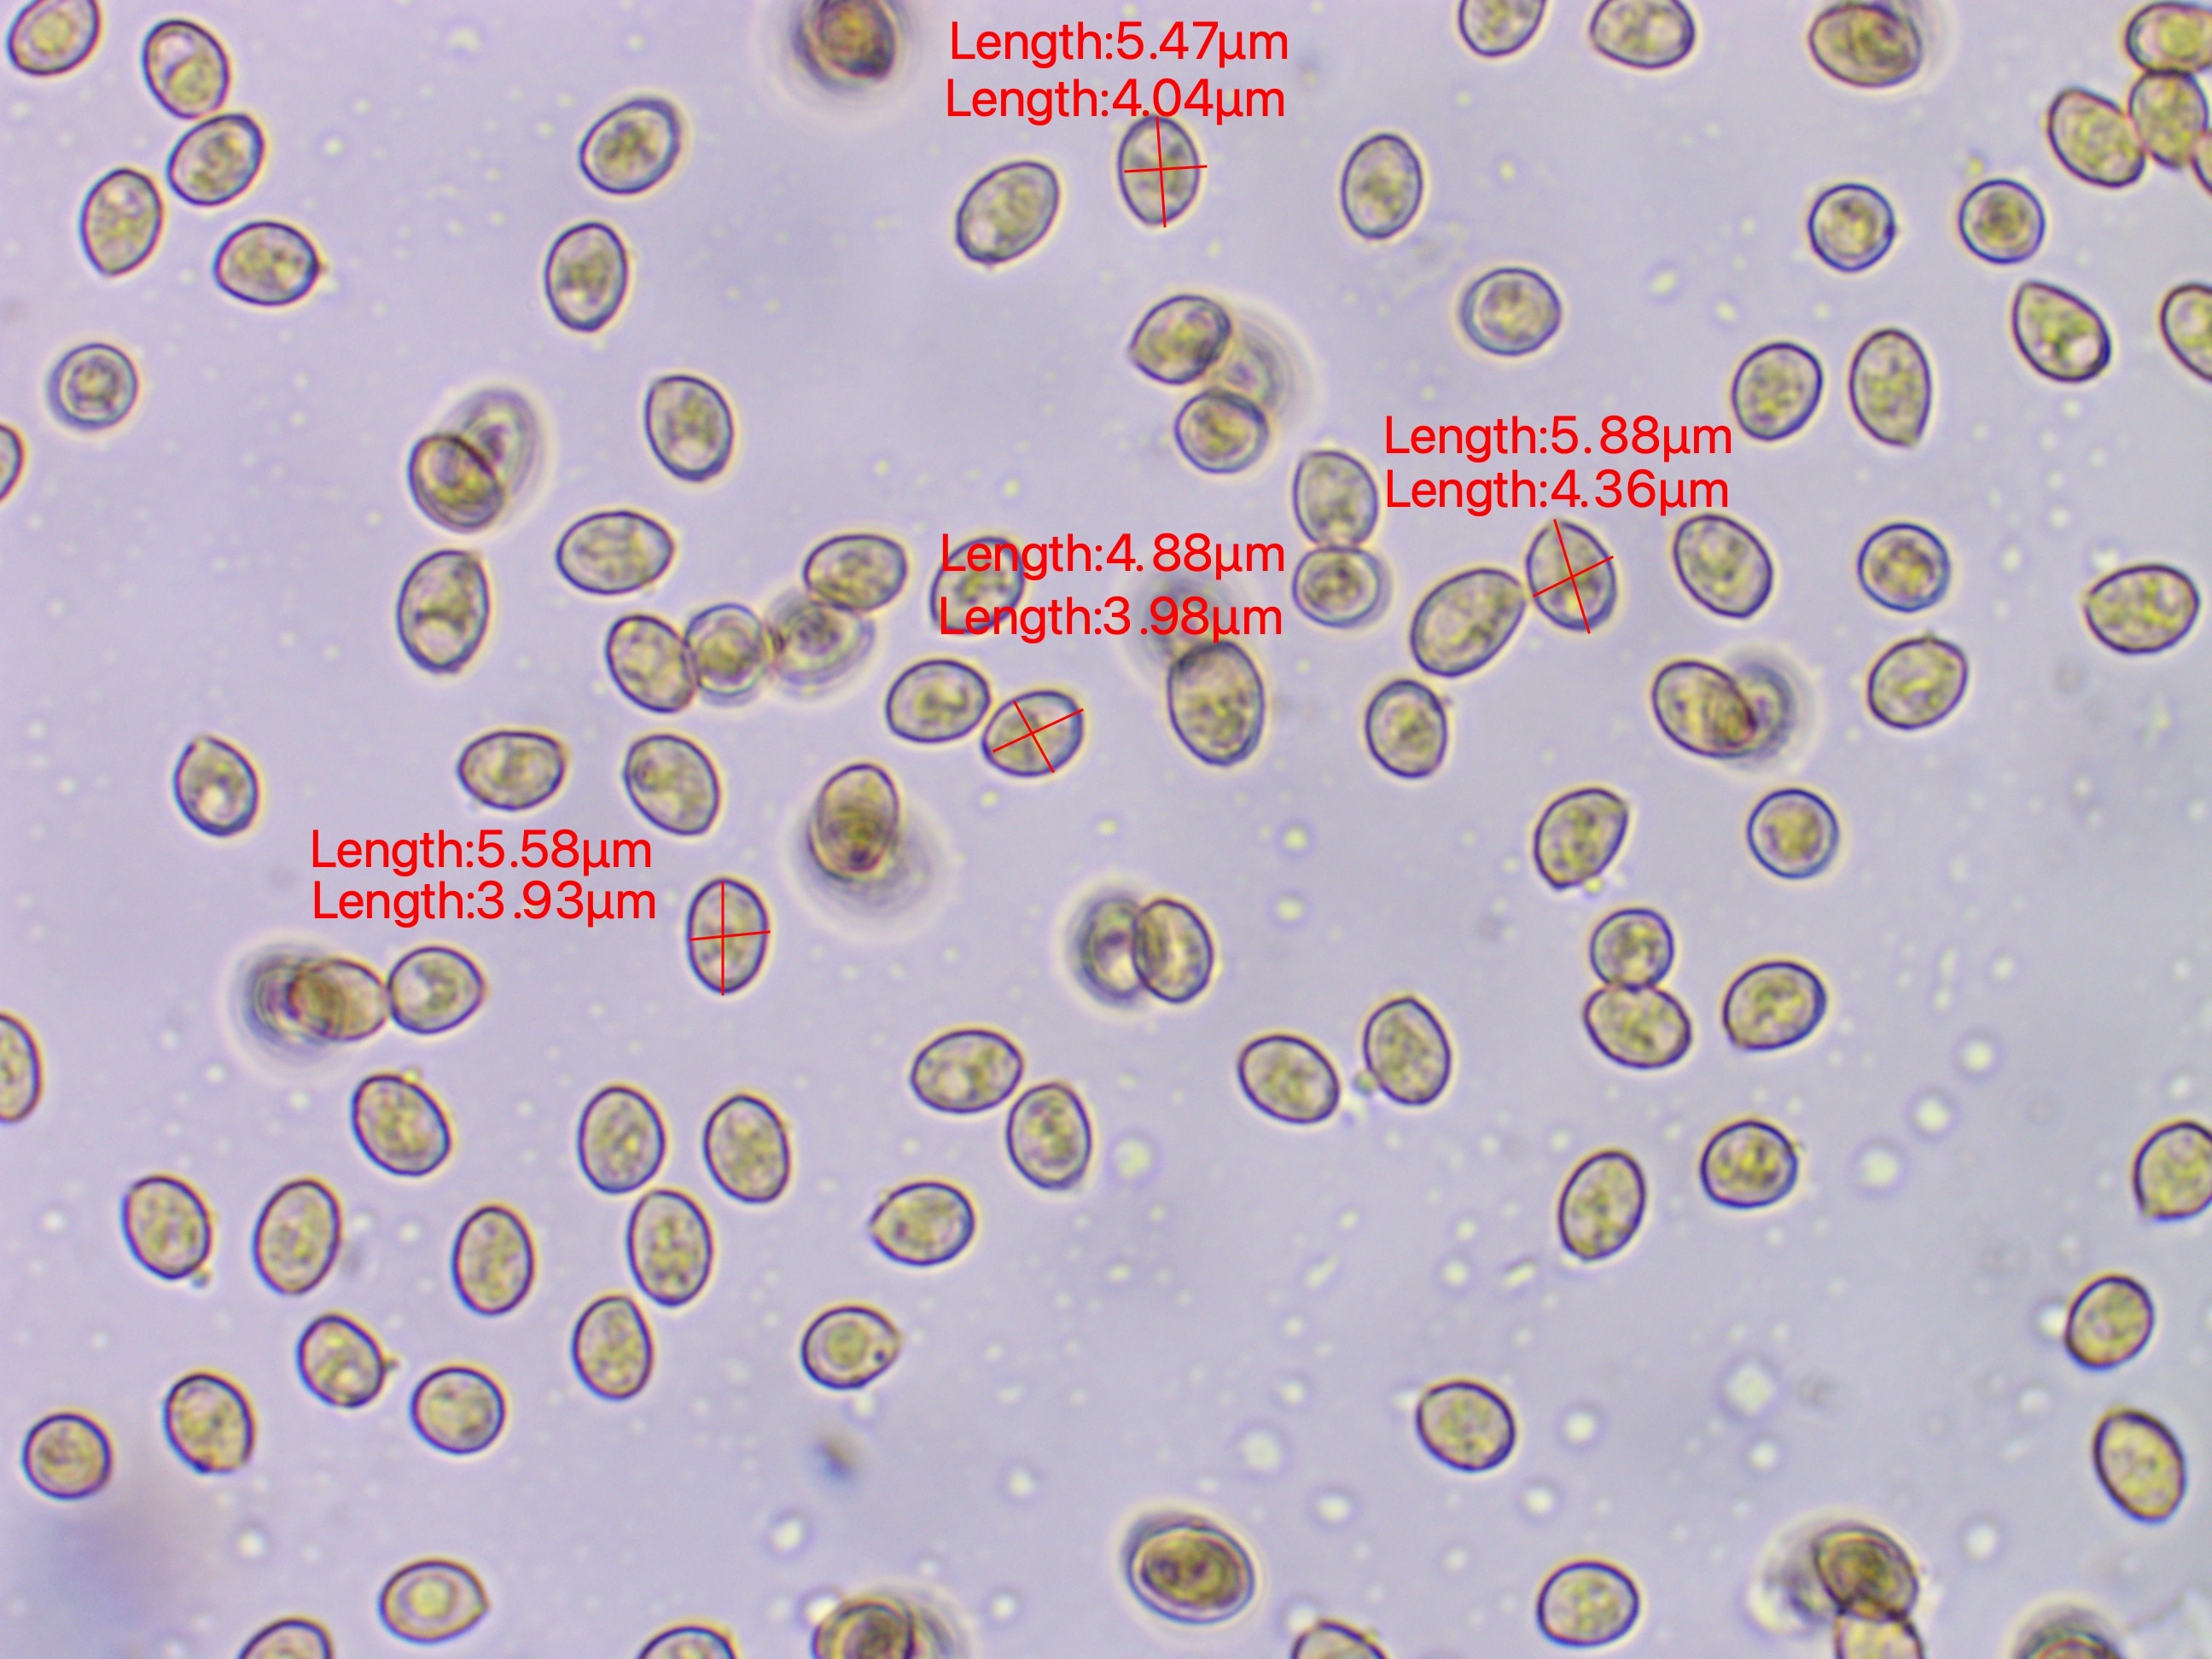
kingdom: Fungi
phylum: Basidiomycota
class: Agaricomycetes
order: Agaricales
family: Cortinariaceae
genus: Cortinarius
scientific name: Cortinarius
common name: cinnoberbladet slørhat
